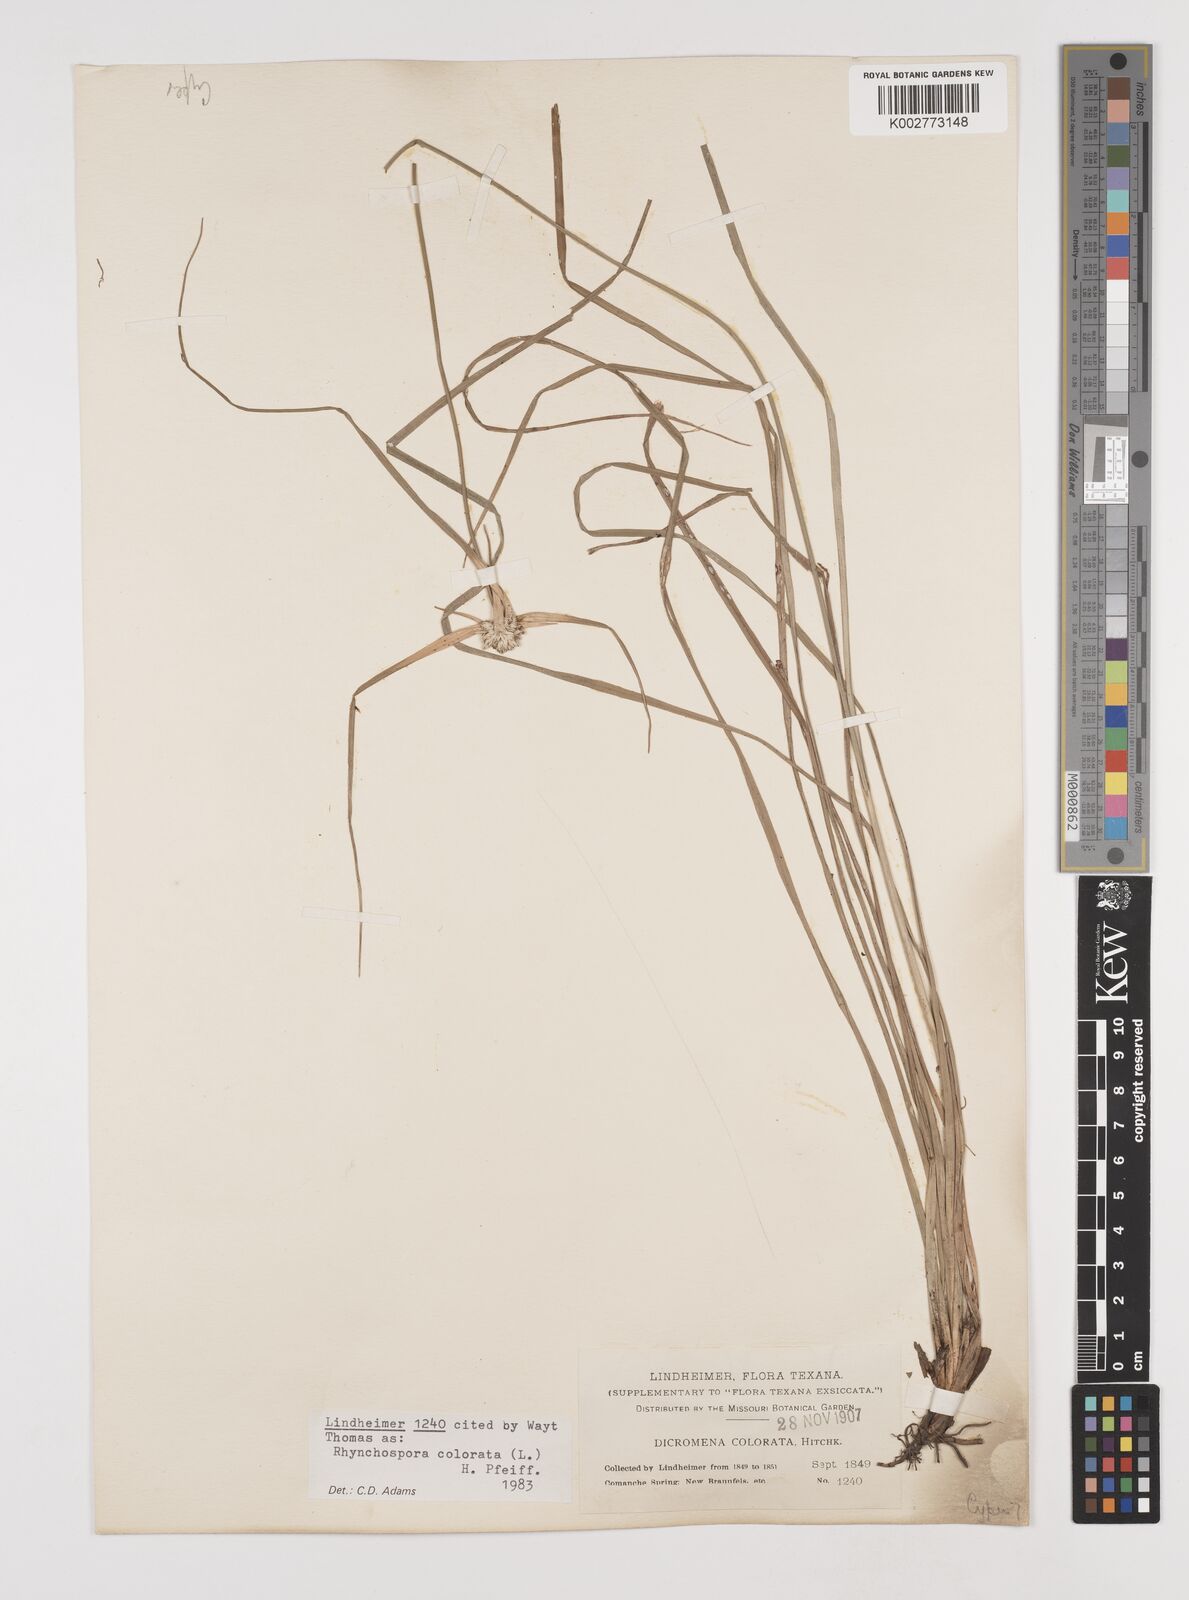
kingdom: Plantae
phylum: Tracheophyta
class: Liliopsida
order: Poales
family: Cyperaceae
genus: Rhynchospora
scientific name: Rhynchospora colorata
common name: Star sedge
